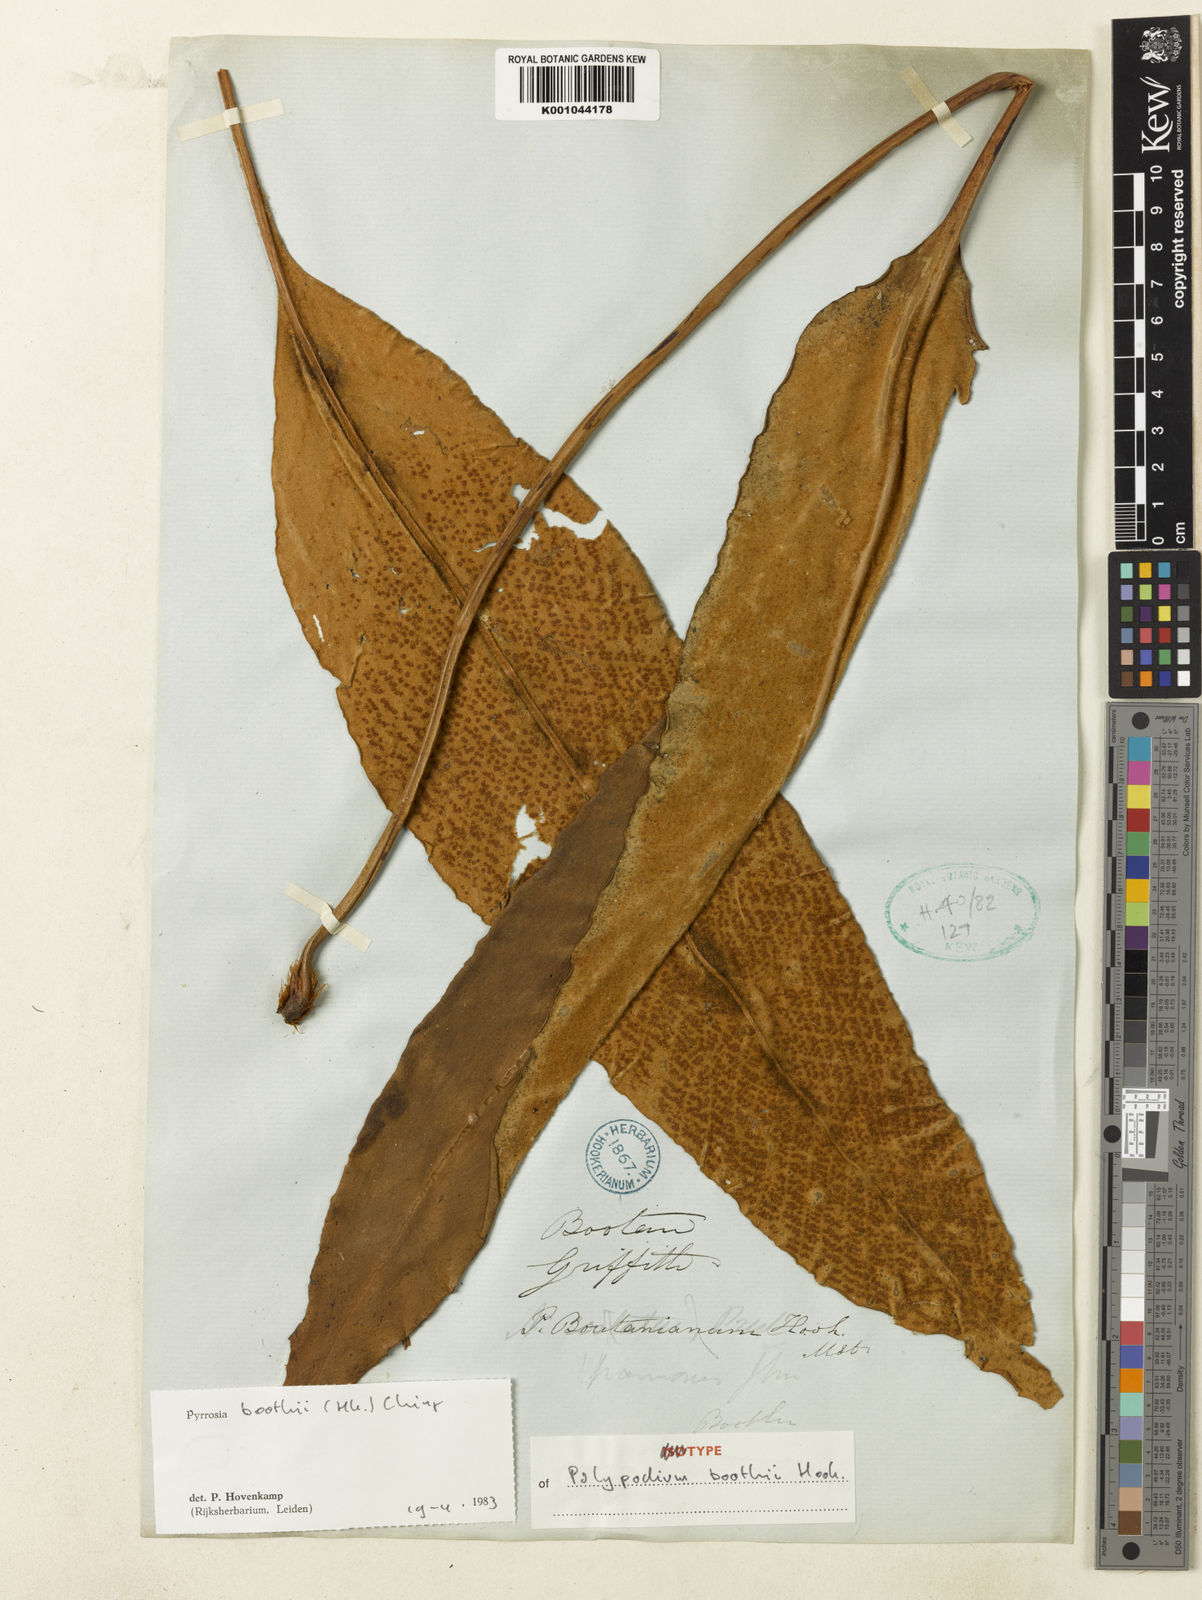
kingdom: Plantae
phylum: Tracheophyta
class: Polypodiopsida
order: Polypodiales
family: Polypodiaceae
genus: Pyrrosia
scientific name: Pyrrosia boothii
